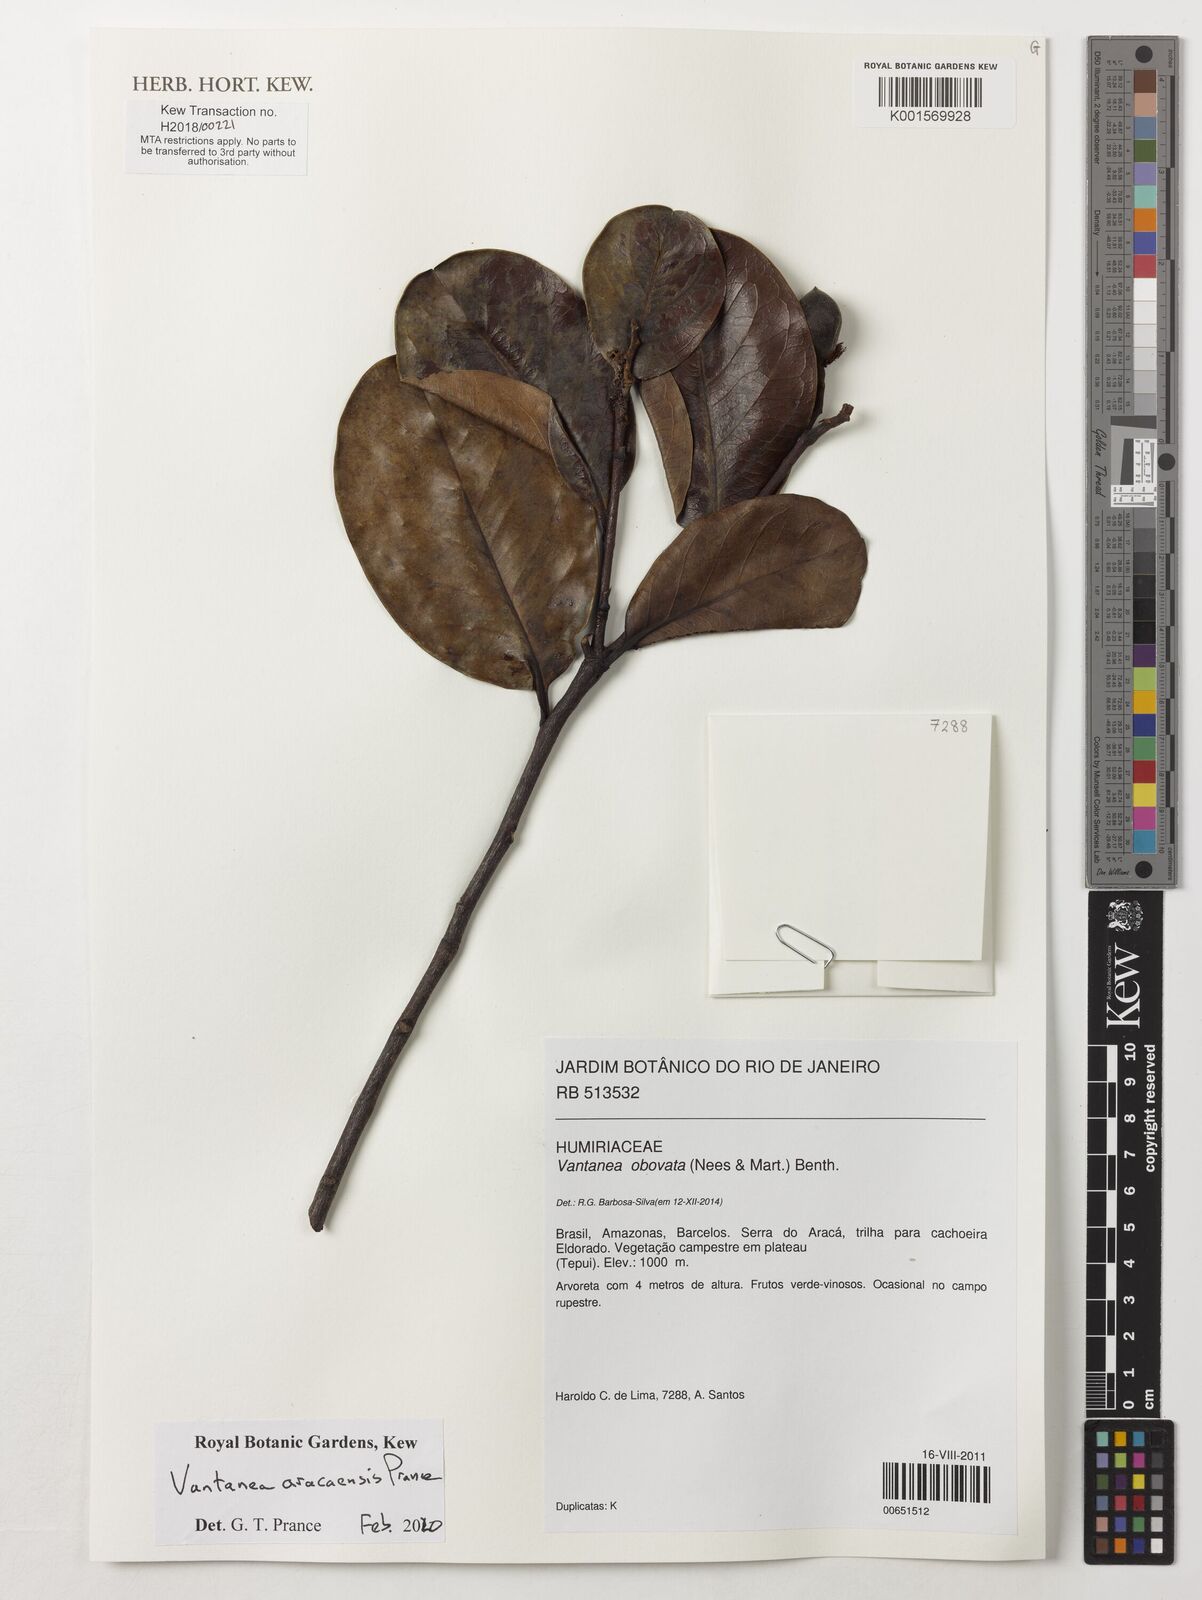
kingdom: Plantae
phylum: Tracheophyta
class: Magnoliopsida
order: Malpighiales
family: Humiriaceae
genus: Vantanea
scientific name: Vantanea
